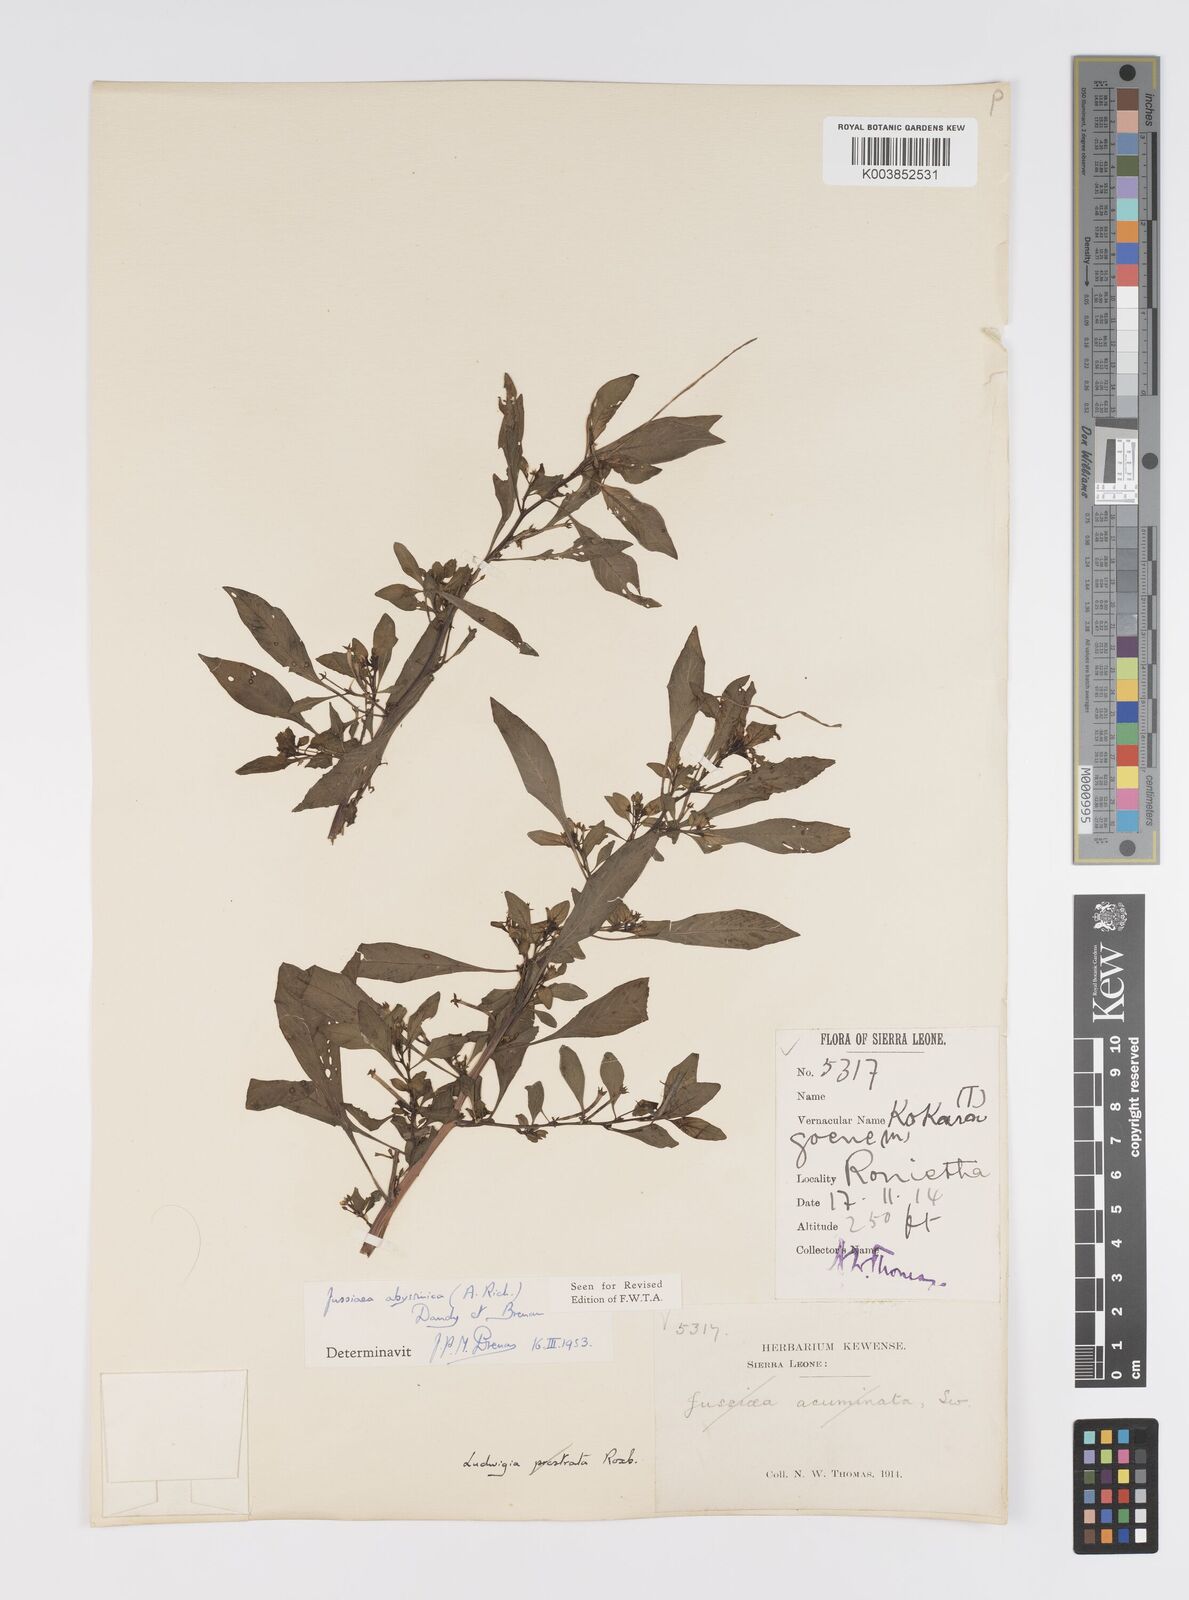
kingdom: Plantae
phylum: Tracheophyta
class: Magnoliopsida
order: Myrtales
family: Onagraceae
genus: Ludwigia
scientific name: Ludwigia abyssinica
